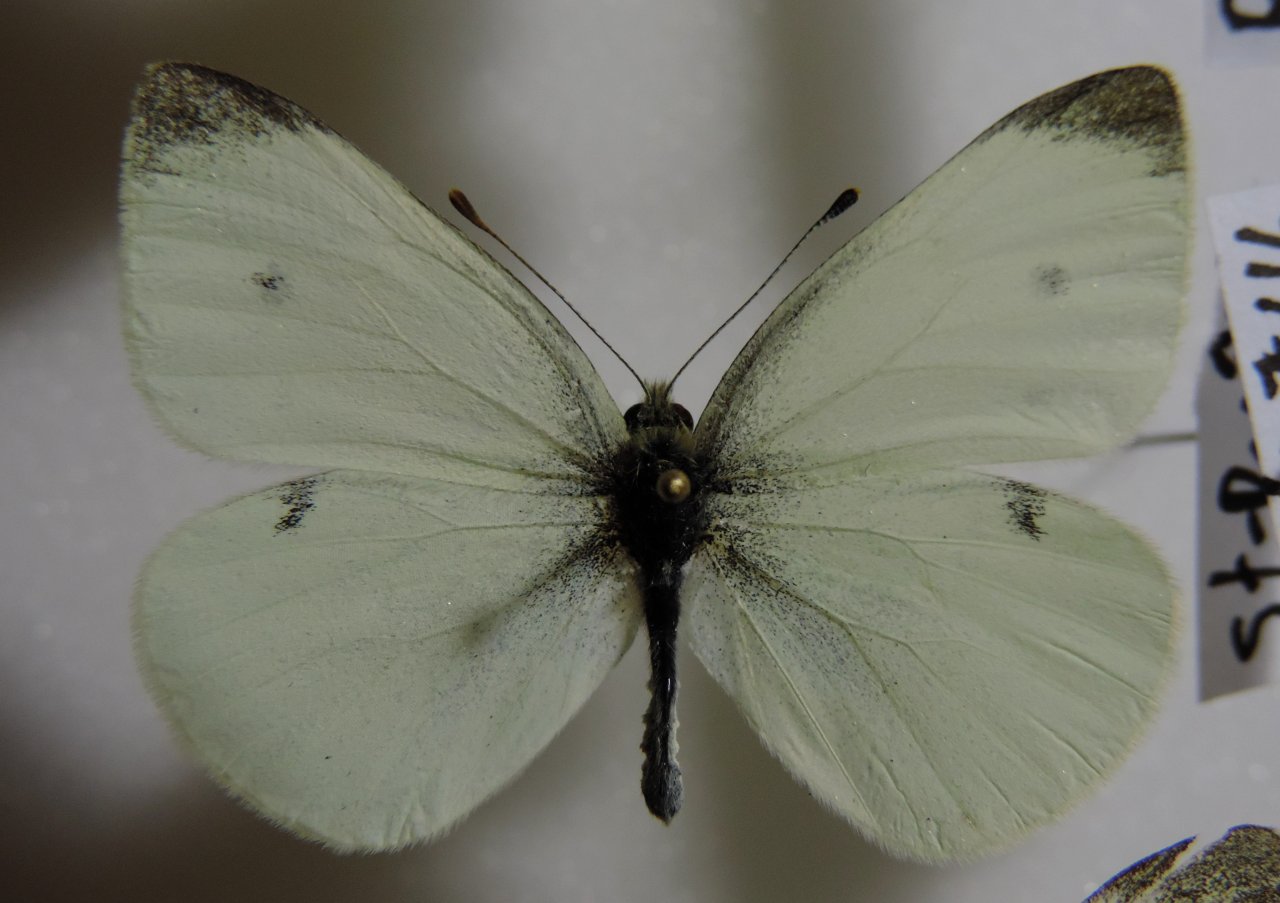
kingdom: Animalia
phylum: Arthropoda
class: Insecta
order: Lepidoptera
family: Pieridae
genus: Pieris
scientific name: Pieris rapae
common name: Cabbage White
